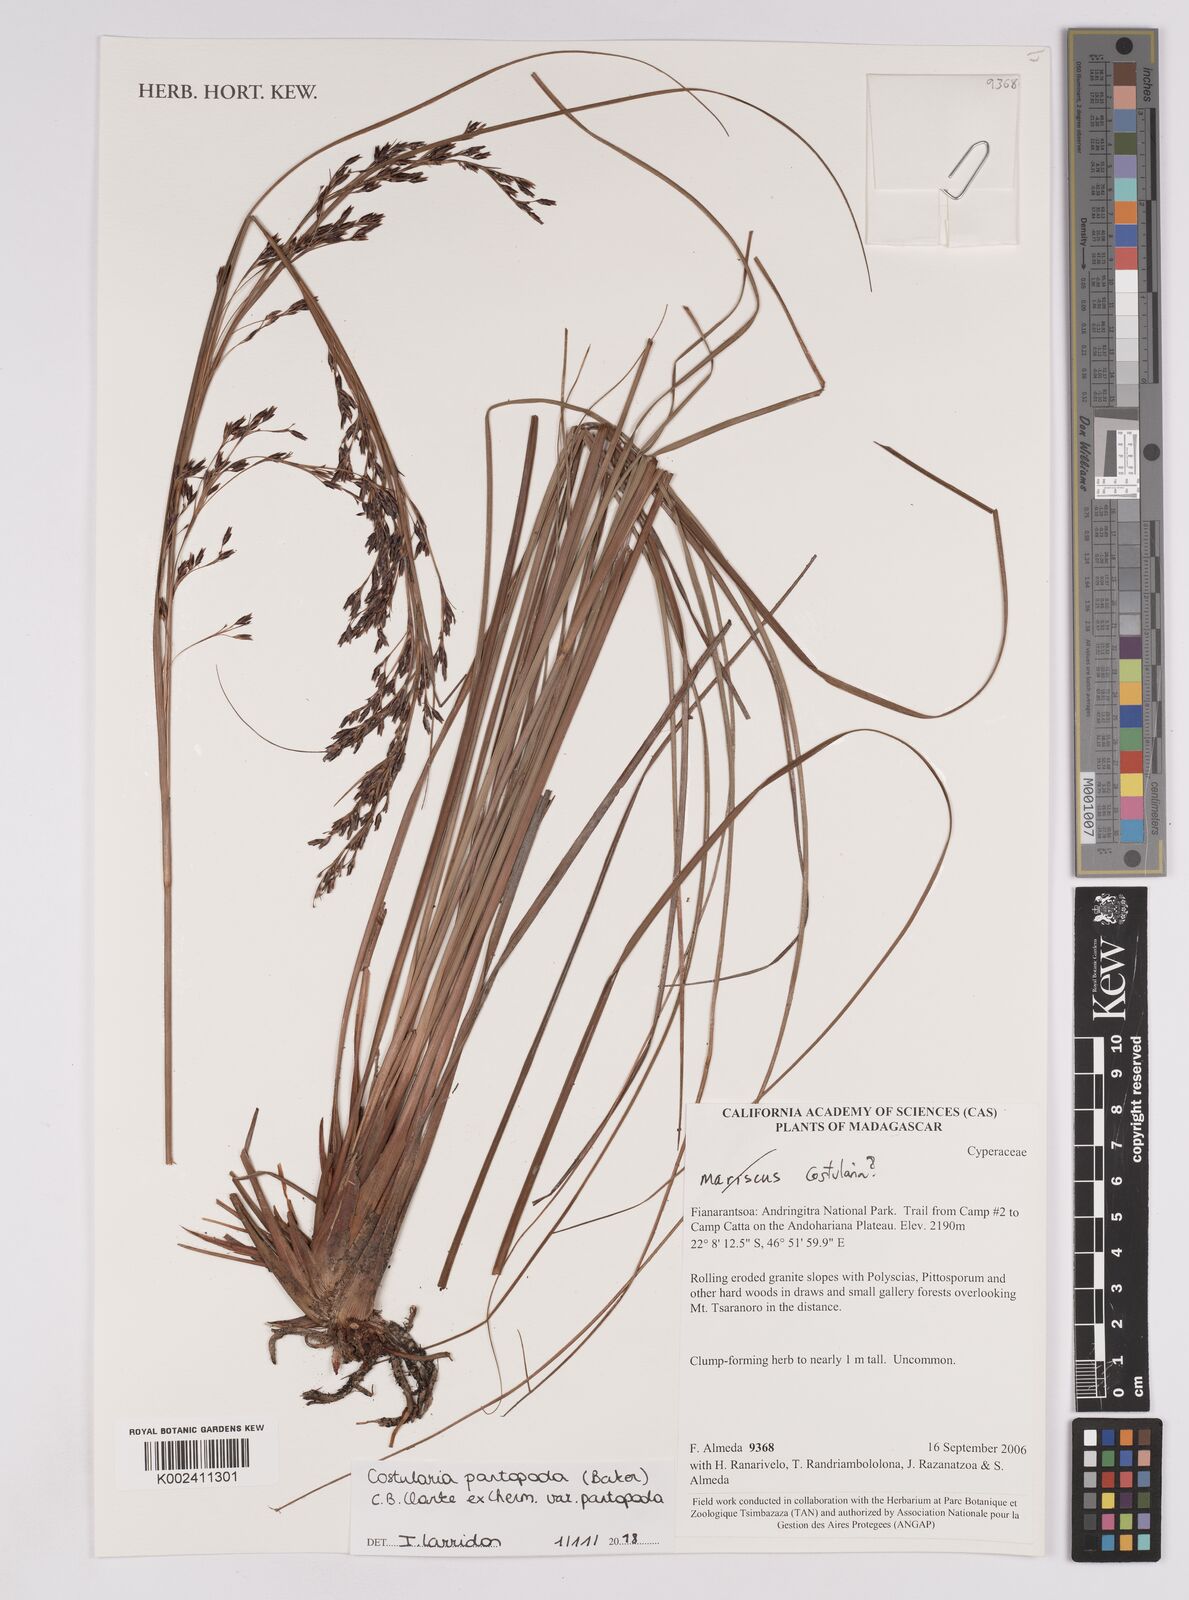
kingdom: Plantae
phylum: Tracheophyta
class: Liliopsida
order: Poales
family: Cyperaceae
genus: Costularia
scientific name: Costularia
